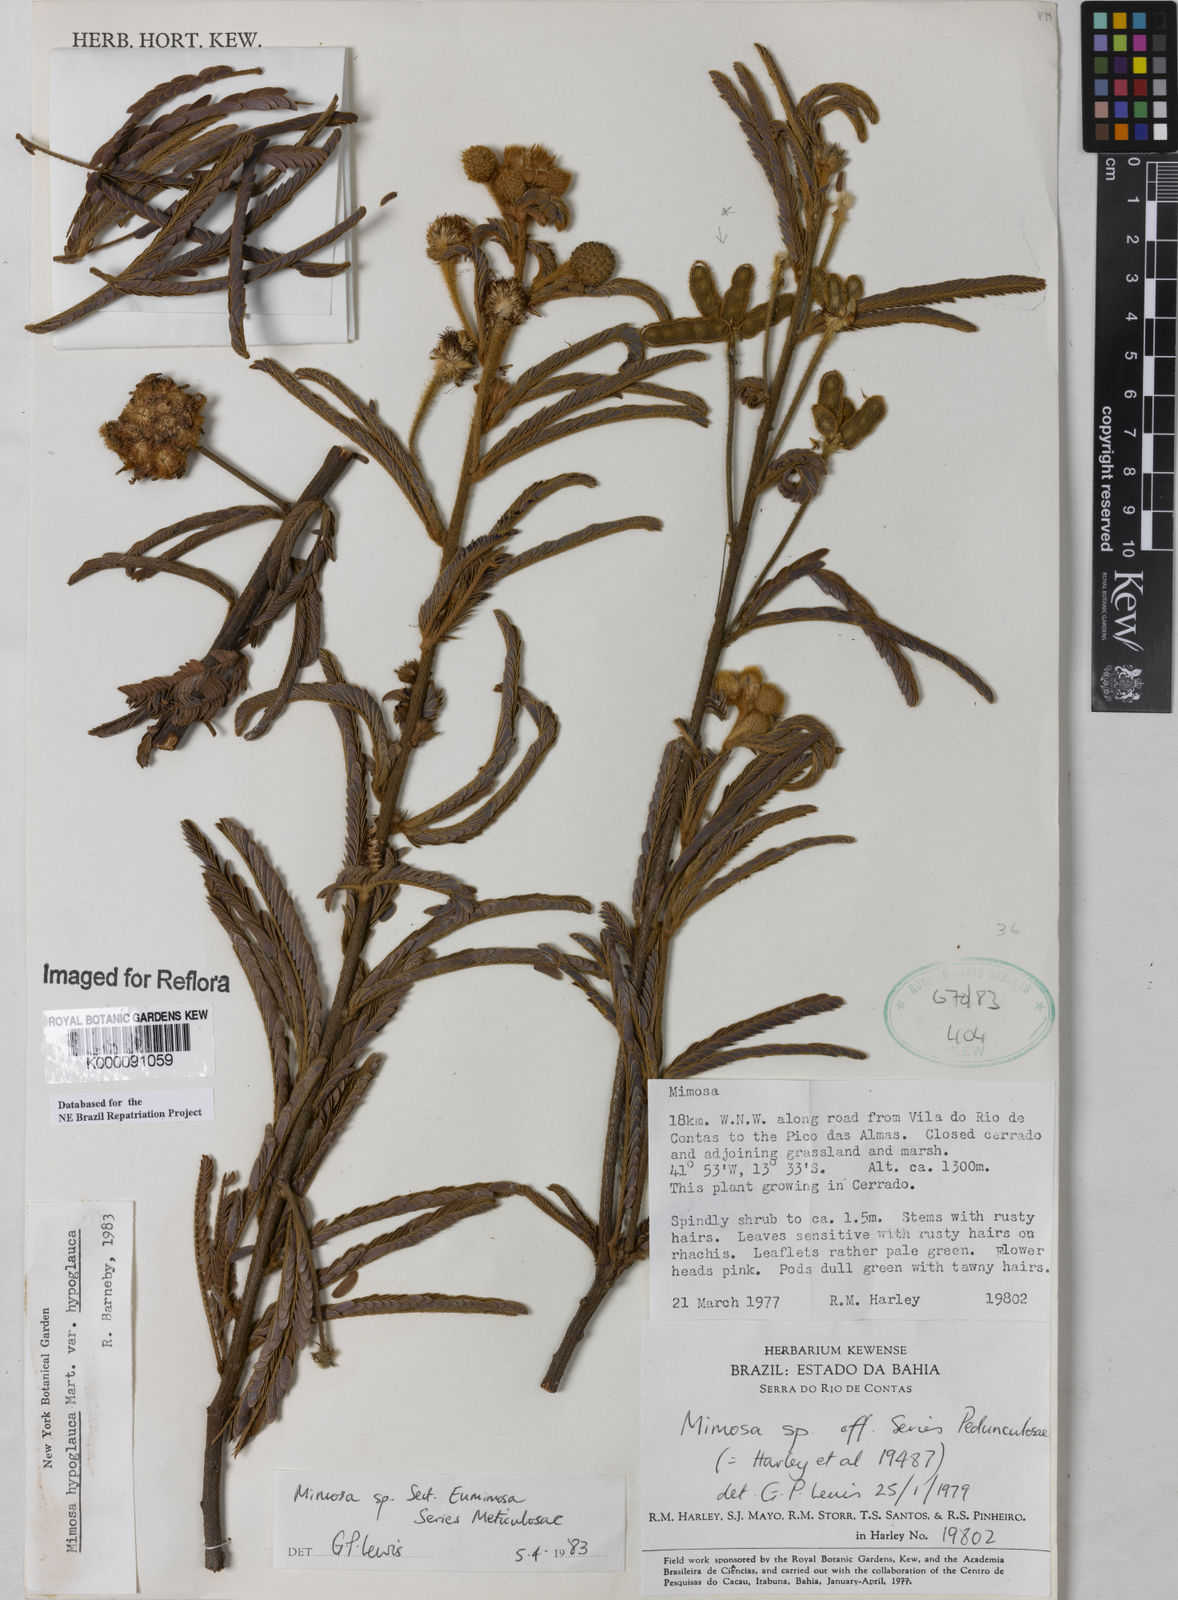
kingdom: Plantae
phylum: Tracheophyta
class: Magnoliopsida
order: Fabales
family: Fabaceae
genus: Mimosa
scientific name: Mimosa hypoglauca
